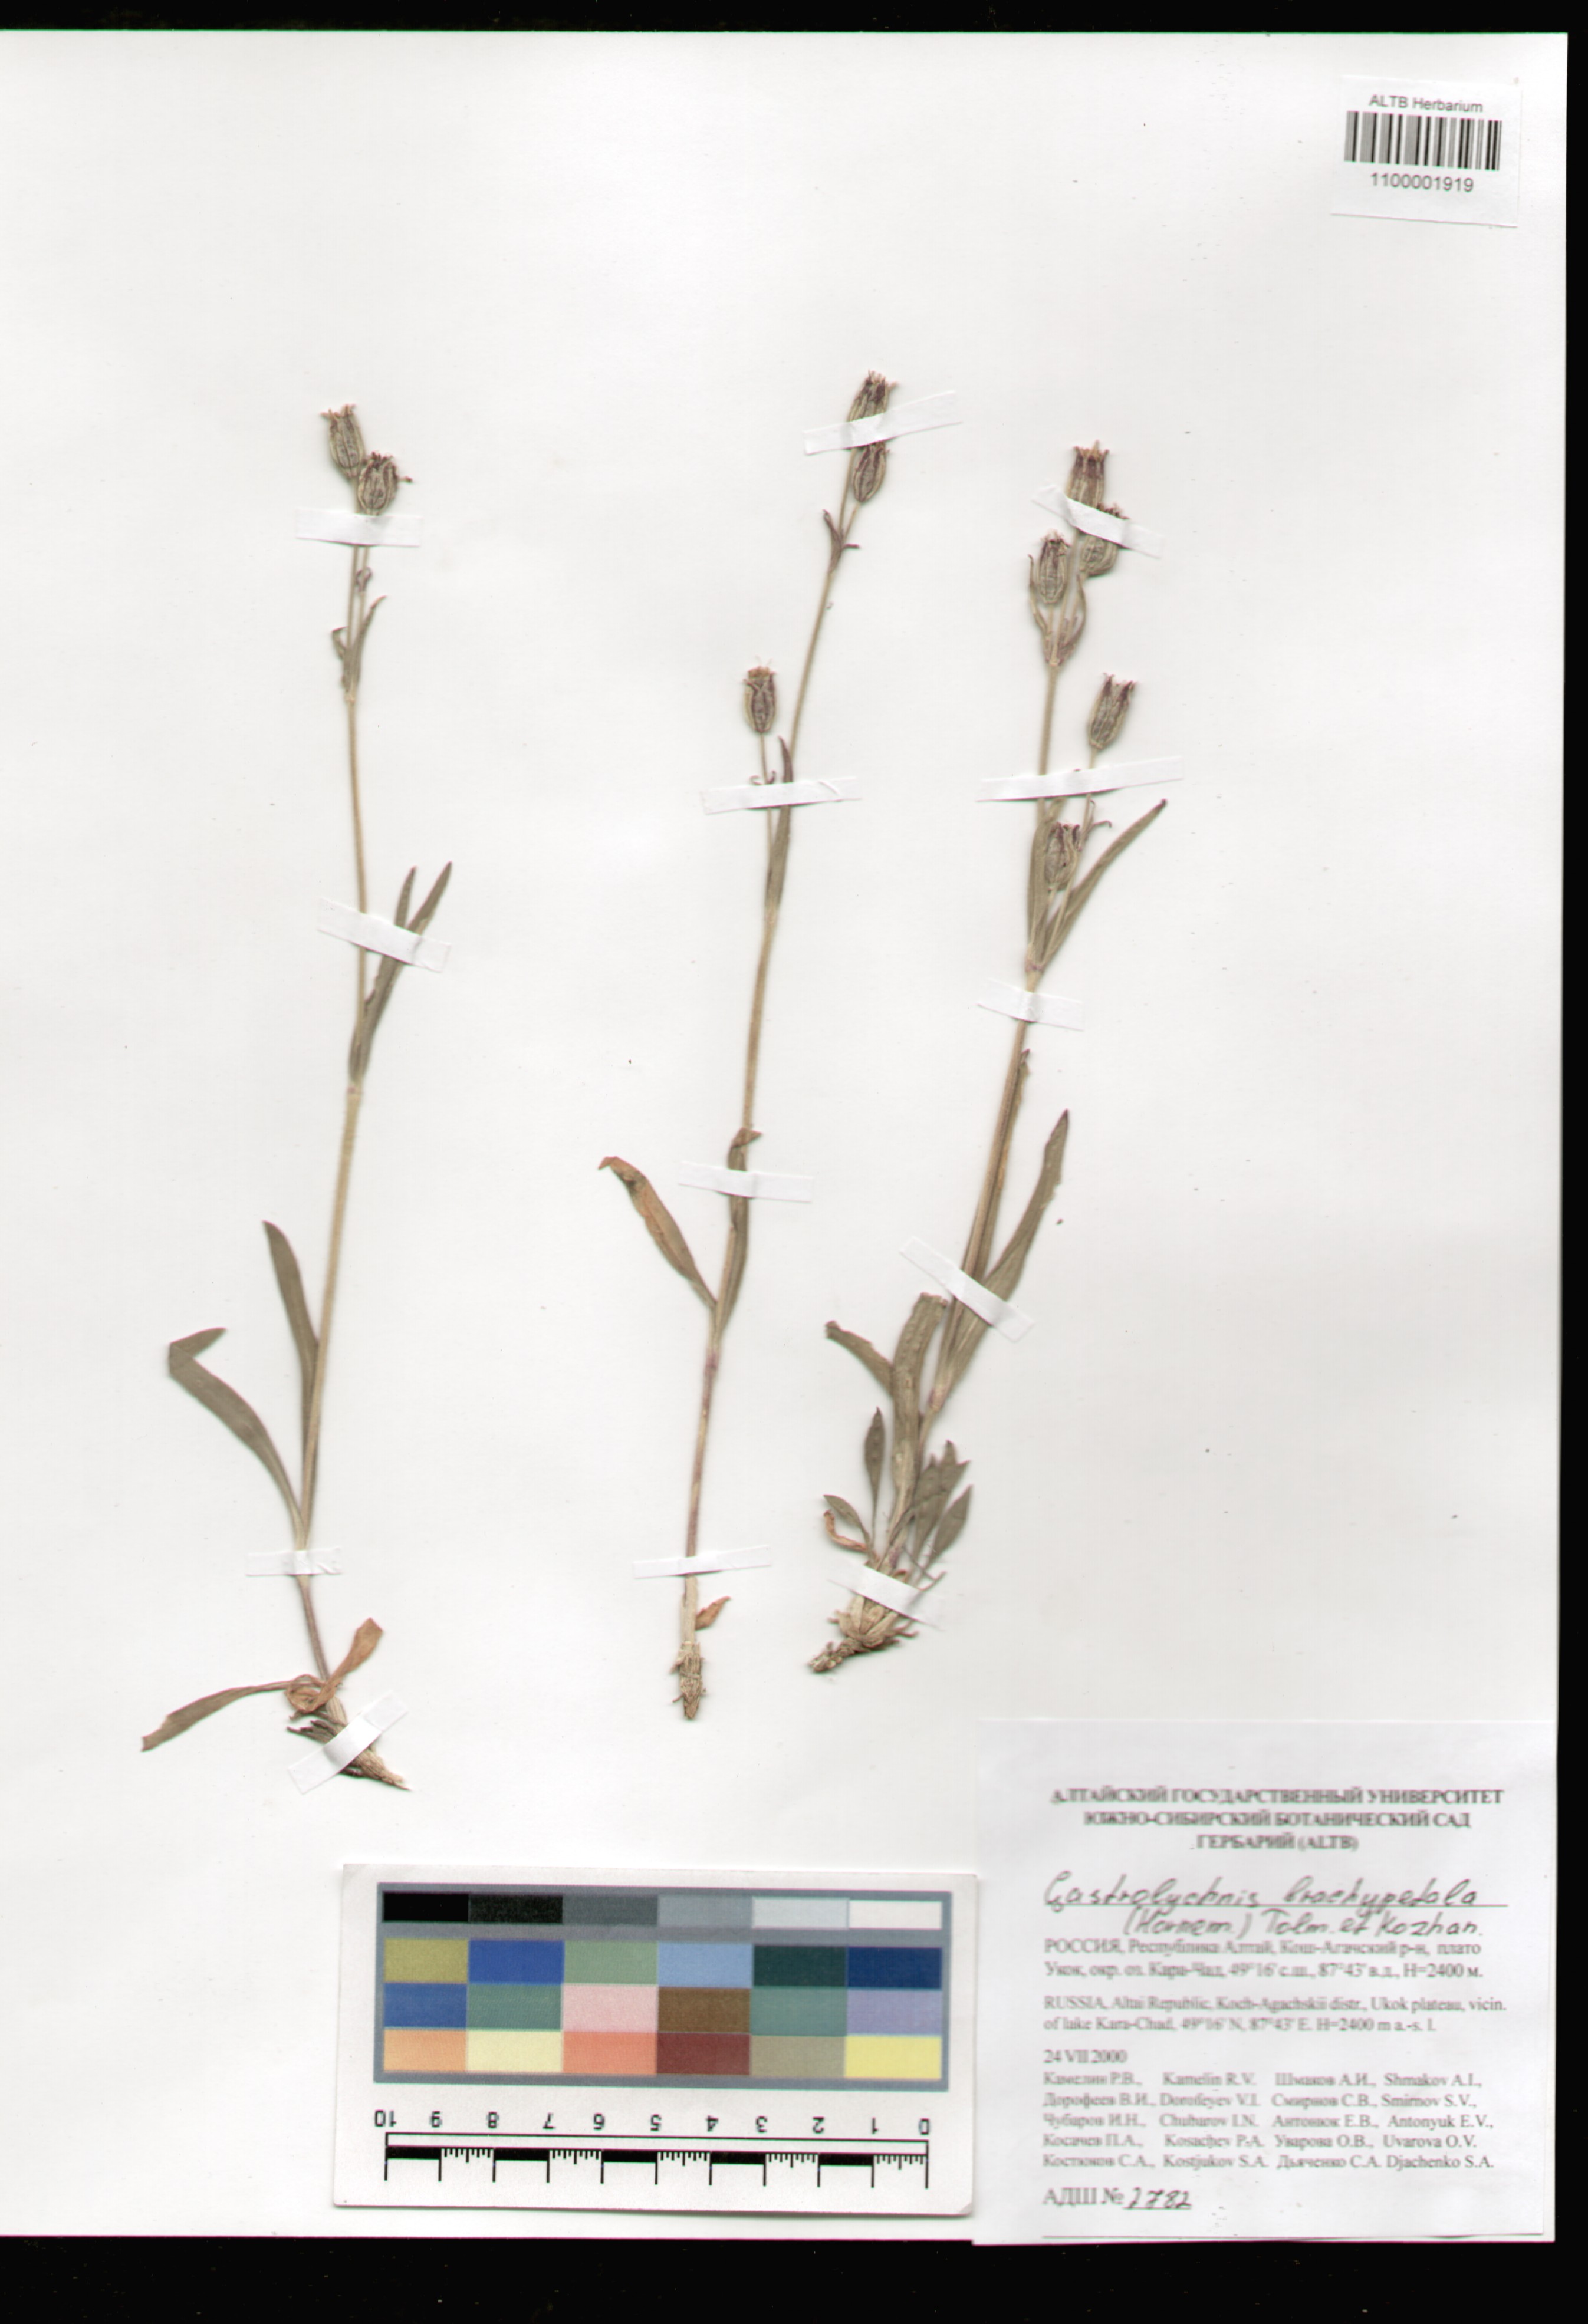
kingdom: Plantae
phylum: Tracheophyta
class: Magnoliopsida
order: Caryophyllales
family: Caryophyllaceae
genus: Silene
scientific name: Silene songarica
